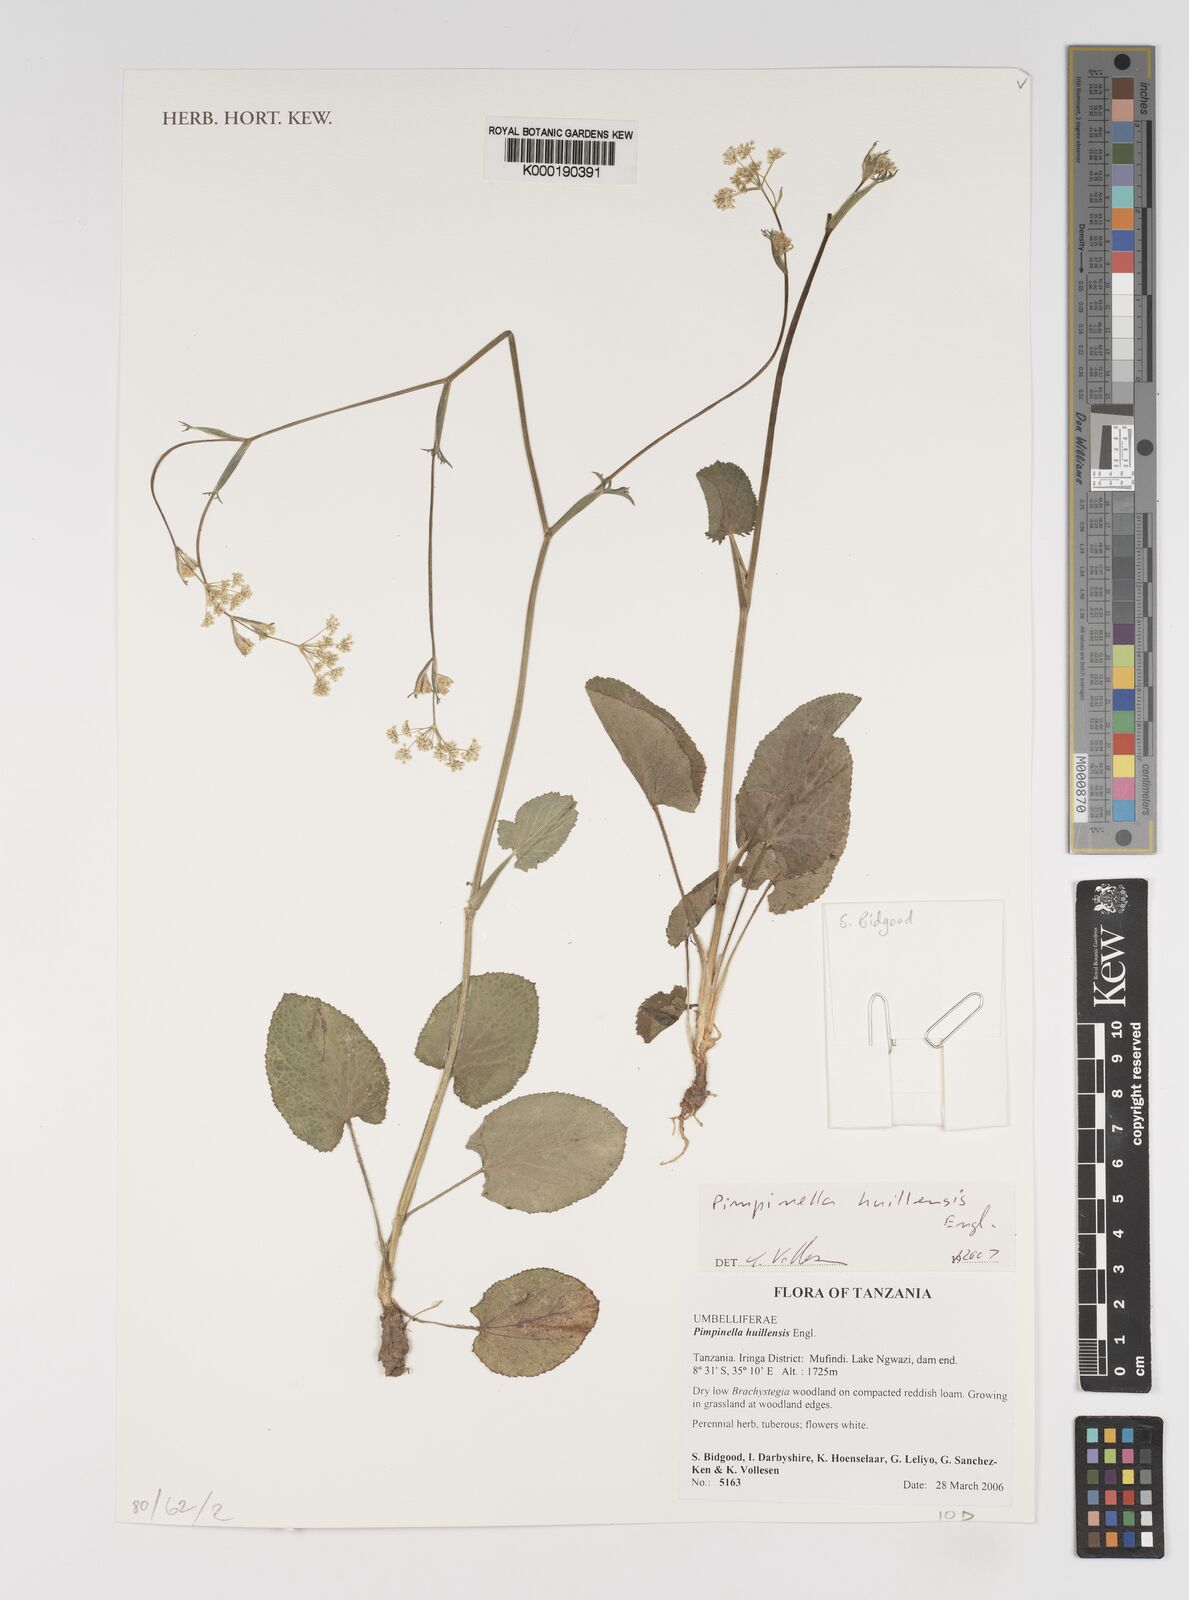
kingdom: Plantae
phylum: Tracheophyta
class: Magnoliopsida
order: Apiales
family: Apiaceae
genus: Pimpinella
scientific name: Pimpinella huillensis
